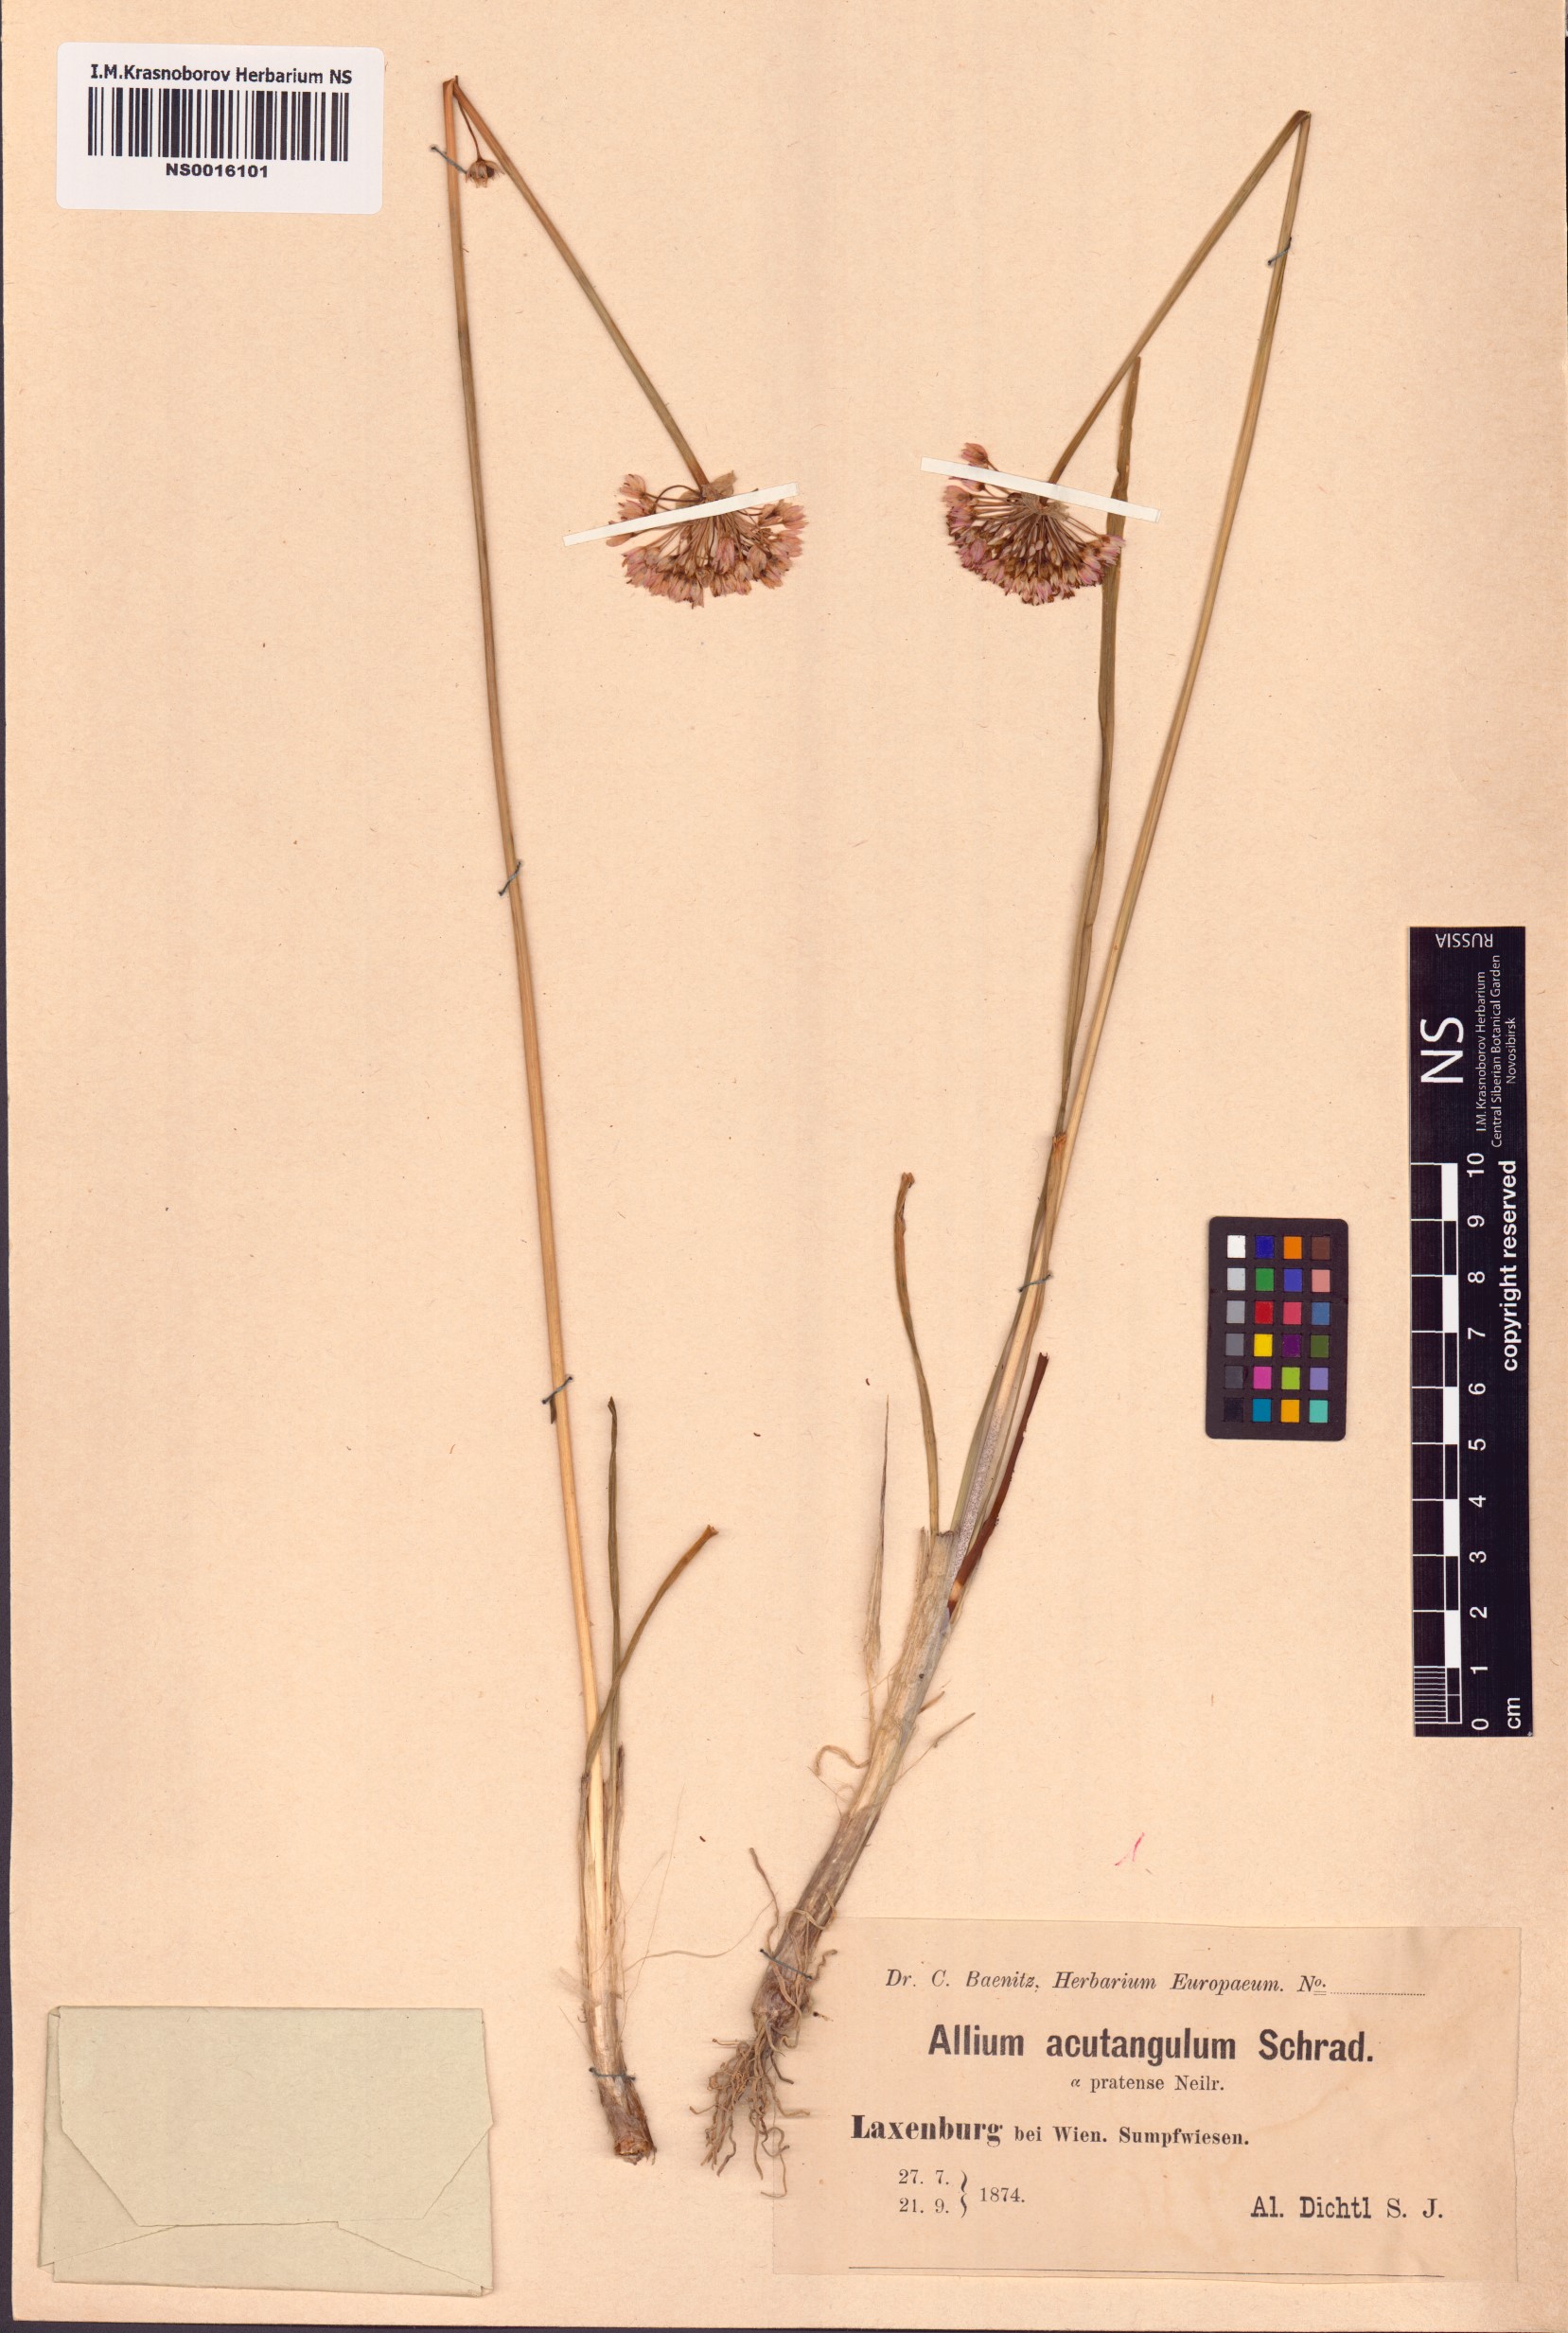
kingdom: Plantae
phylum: Tracheophyta
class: Liliopsida
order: Asparagales
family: Amaryllidaceae
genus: Allium
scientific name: Allium angulosum
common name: Mouse garlic
